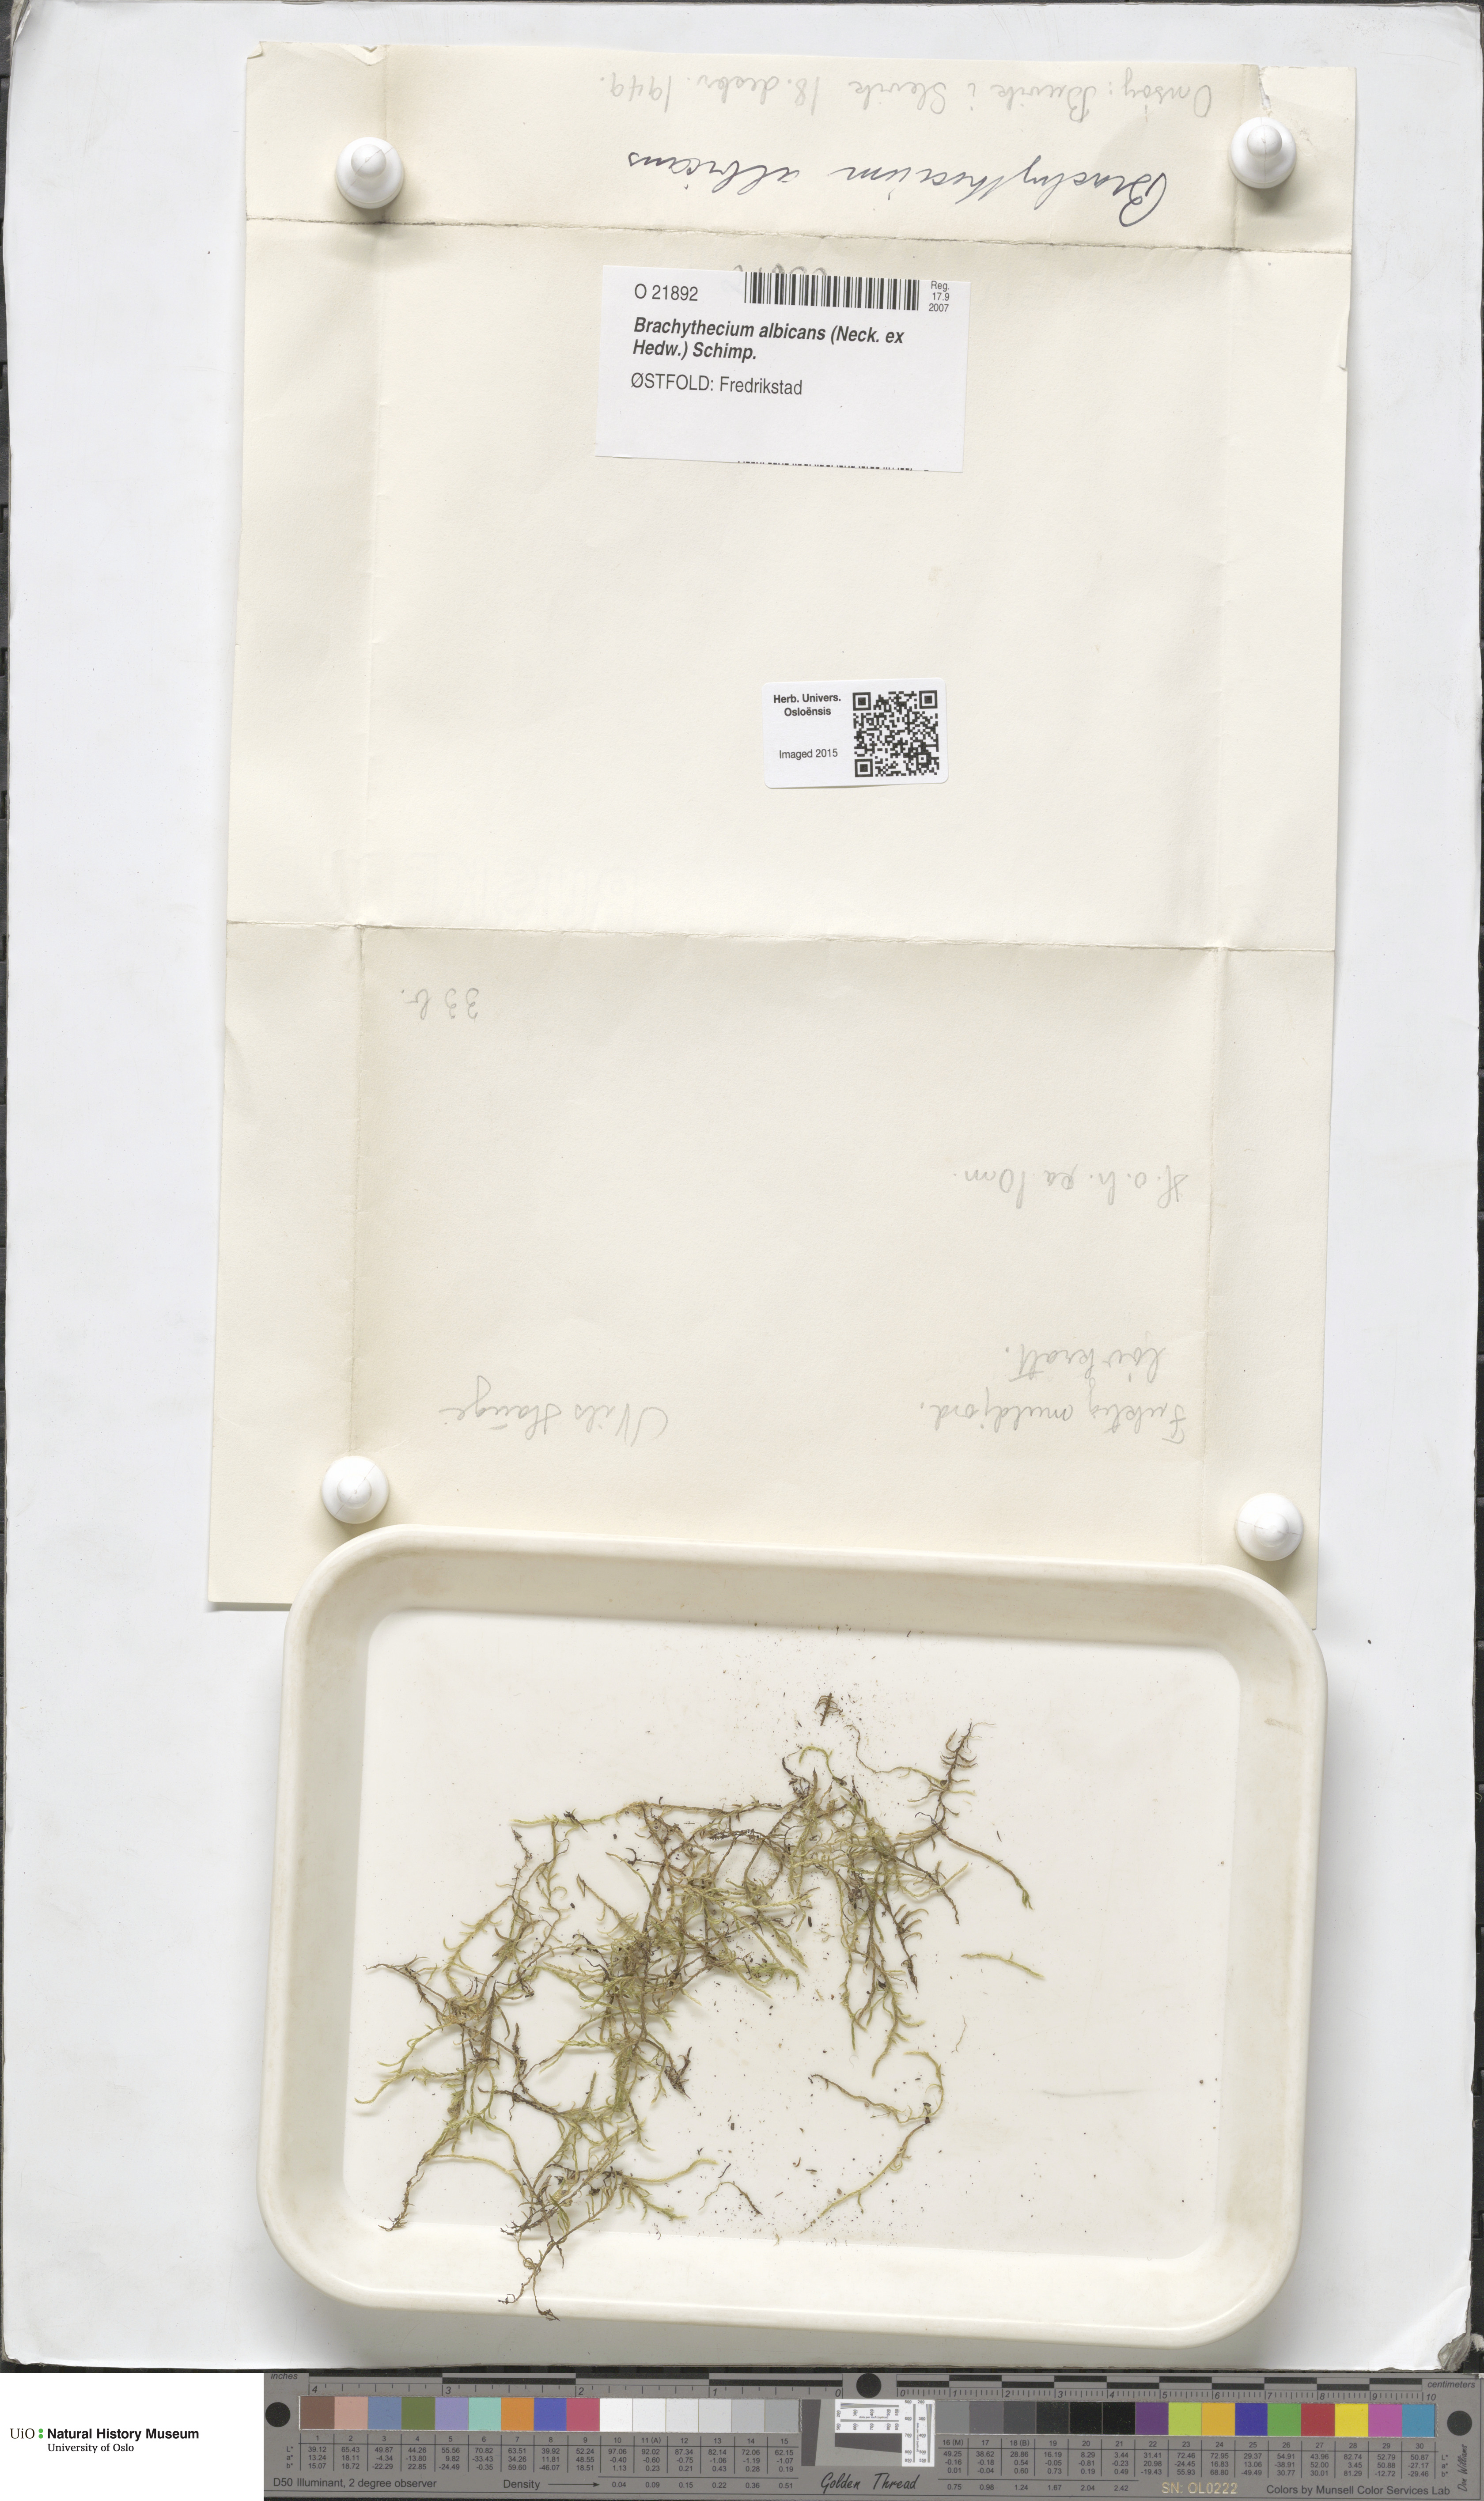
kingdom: Plantae
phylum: Bryophyta
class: Bryopsida
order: Hypnales
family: Brachytheciaceae
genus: Brachythecium
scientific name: Brachythecium albicans
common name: Whitish ragged moss
